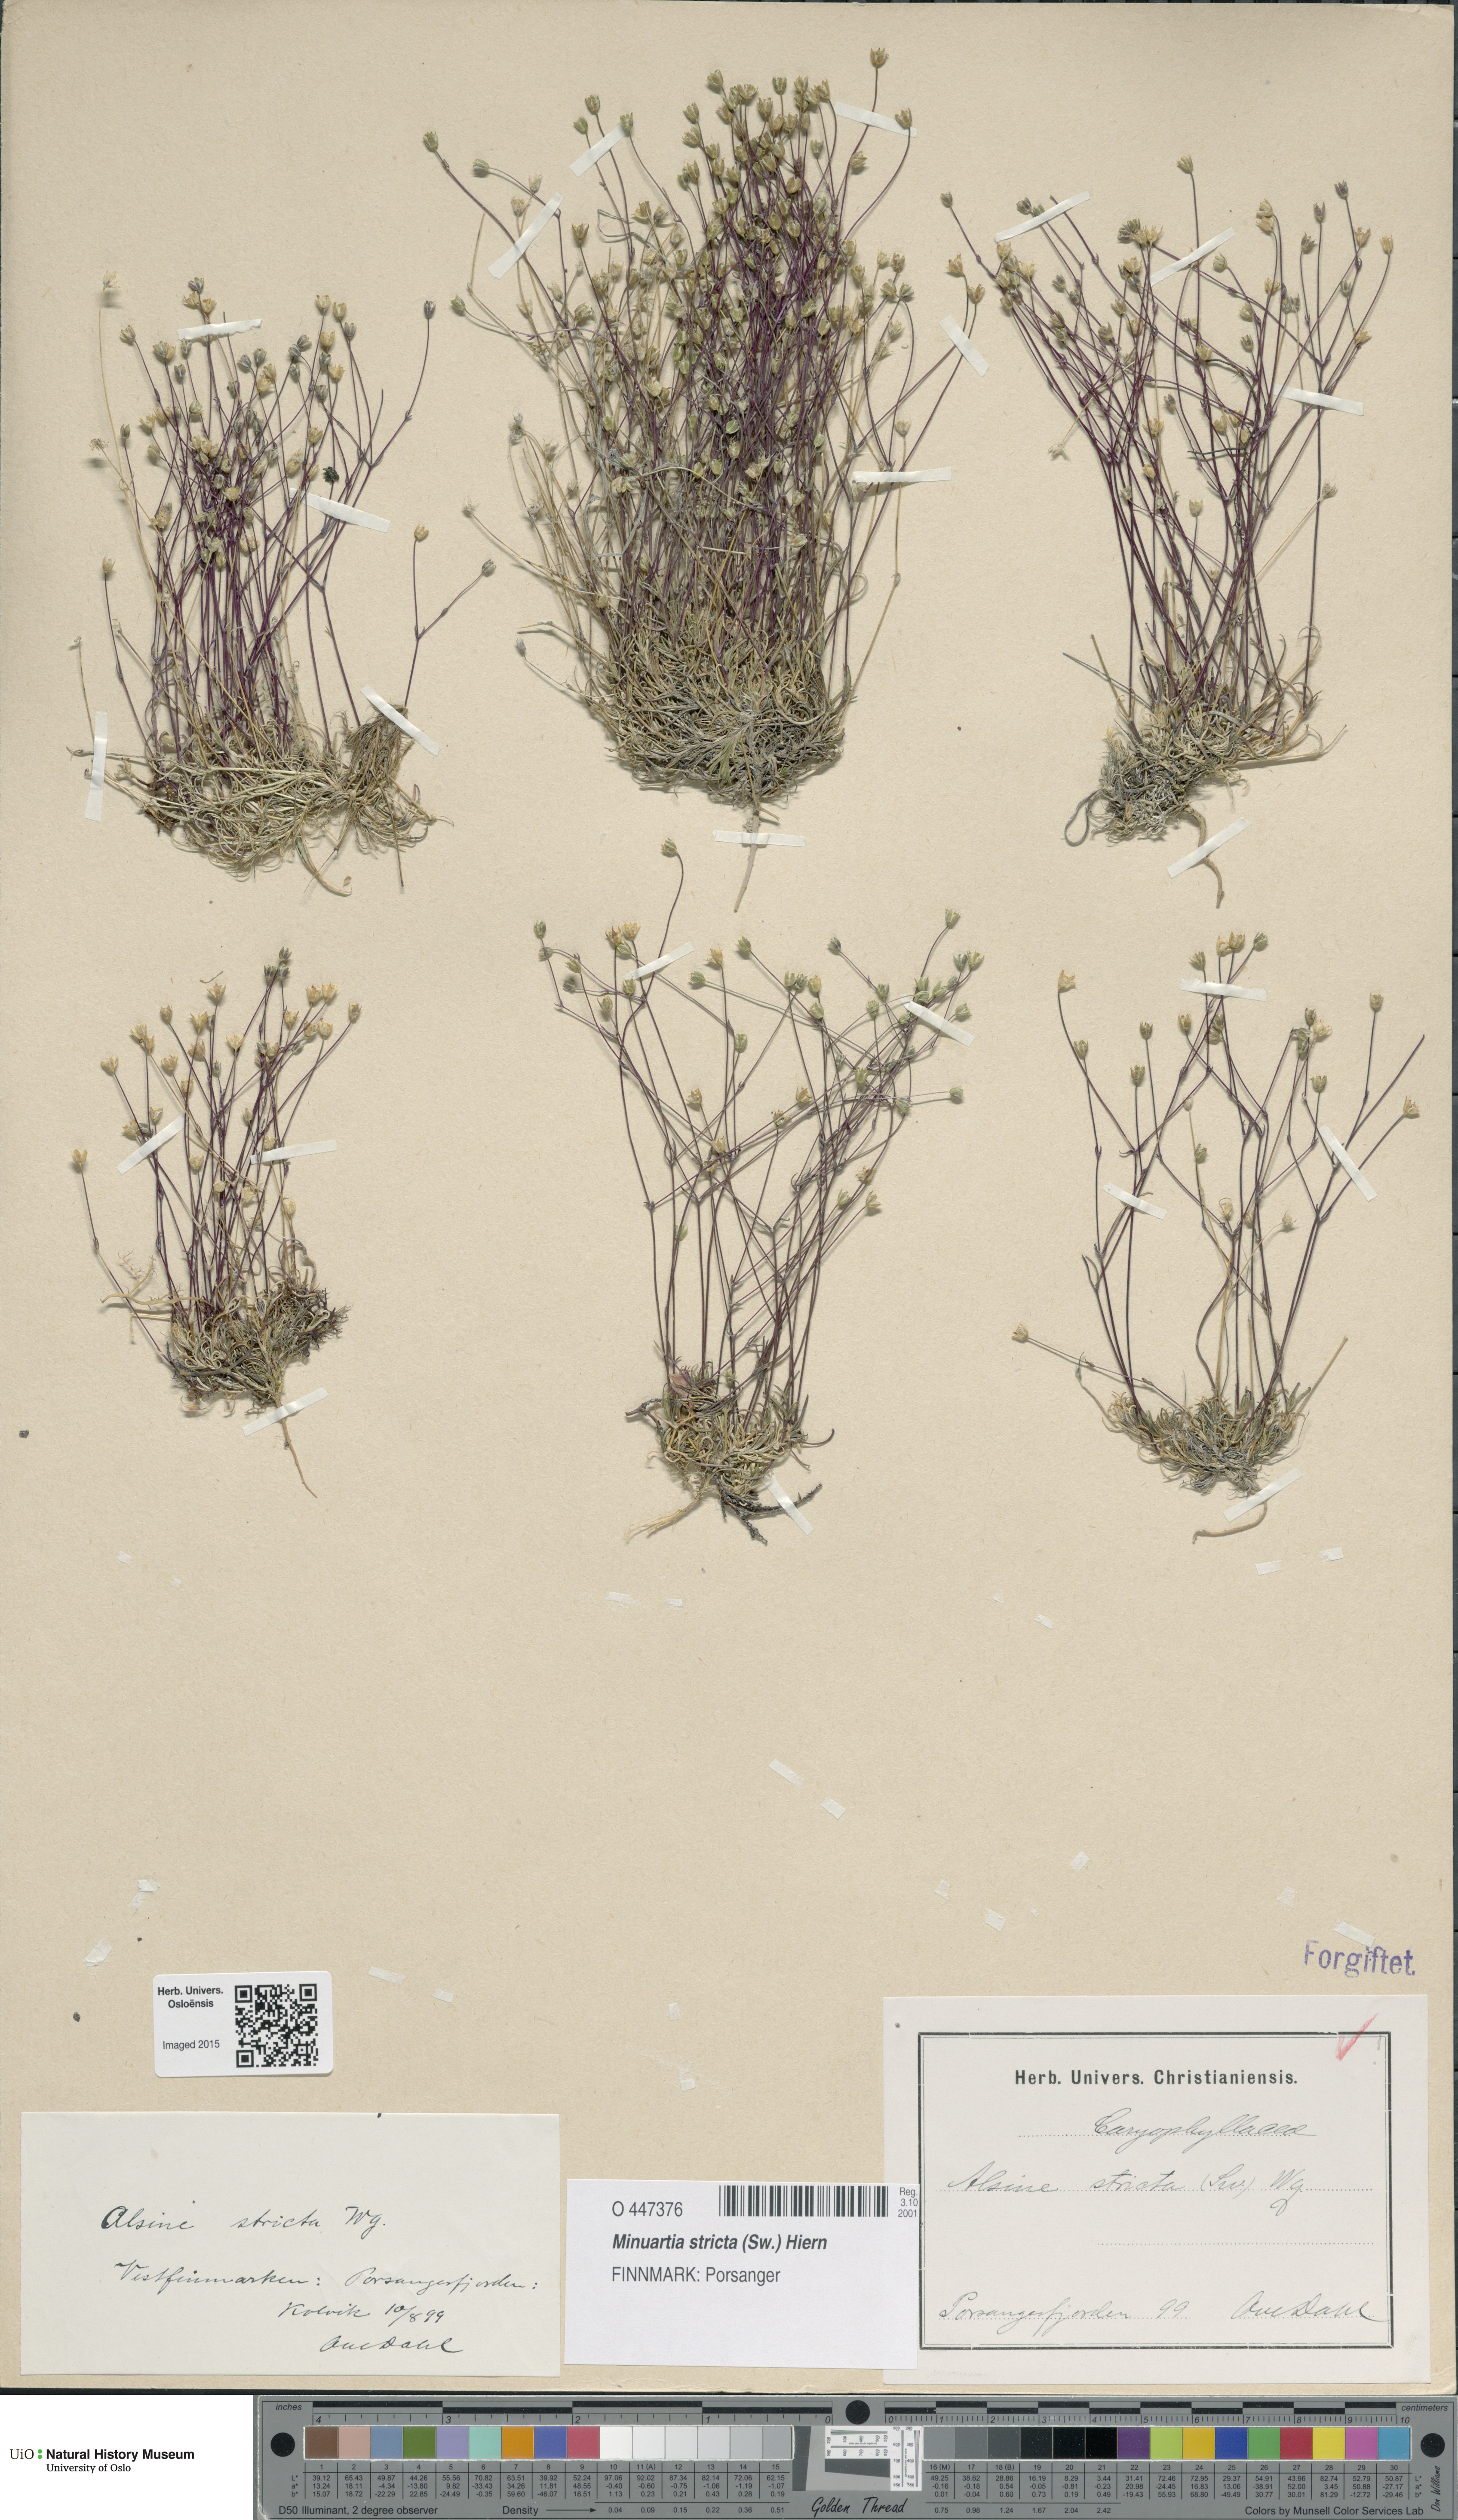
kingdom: Plantae
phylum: Tracheophyta
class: Magnoliopsida
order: Caryophyllales
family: Caryophyllaceae
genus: Sabulina
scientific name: Sabulina stricta
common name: Bog sandwort
